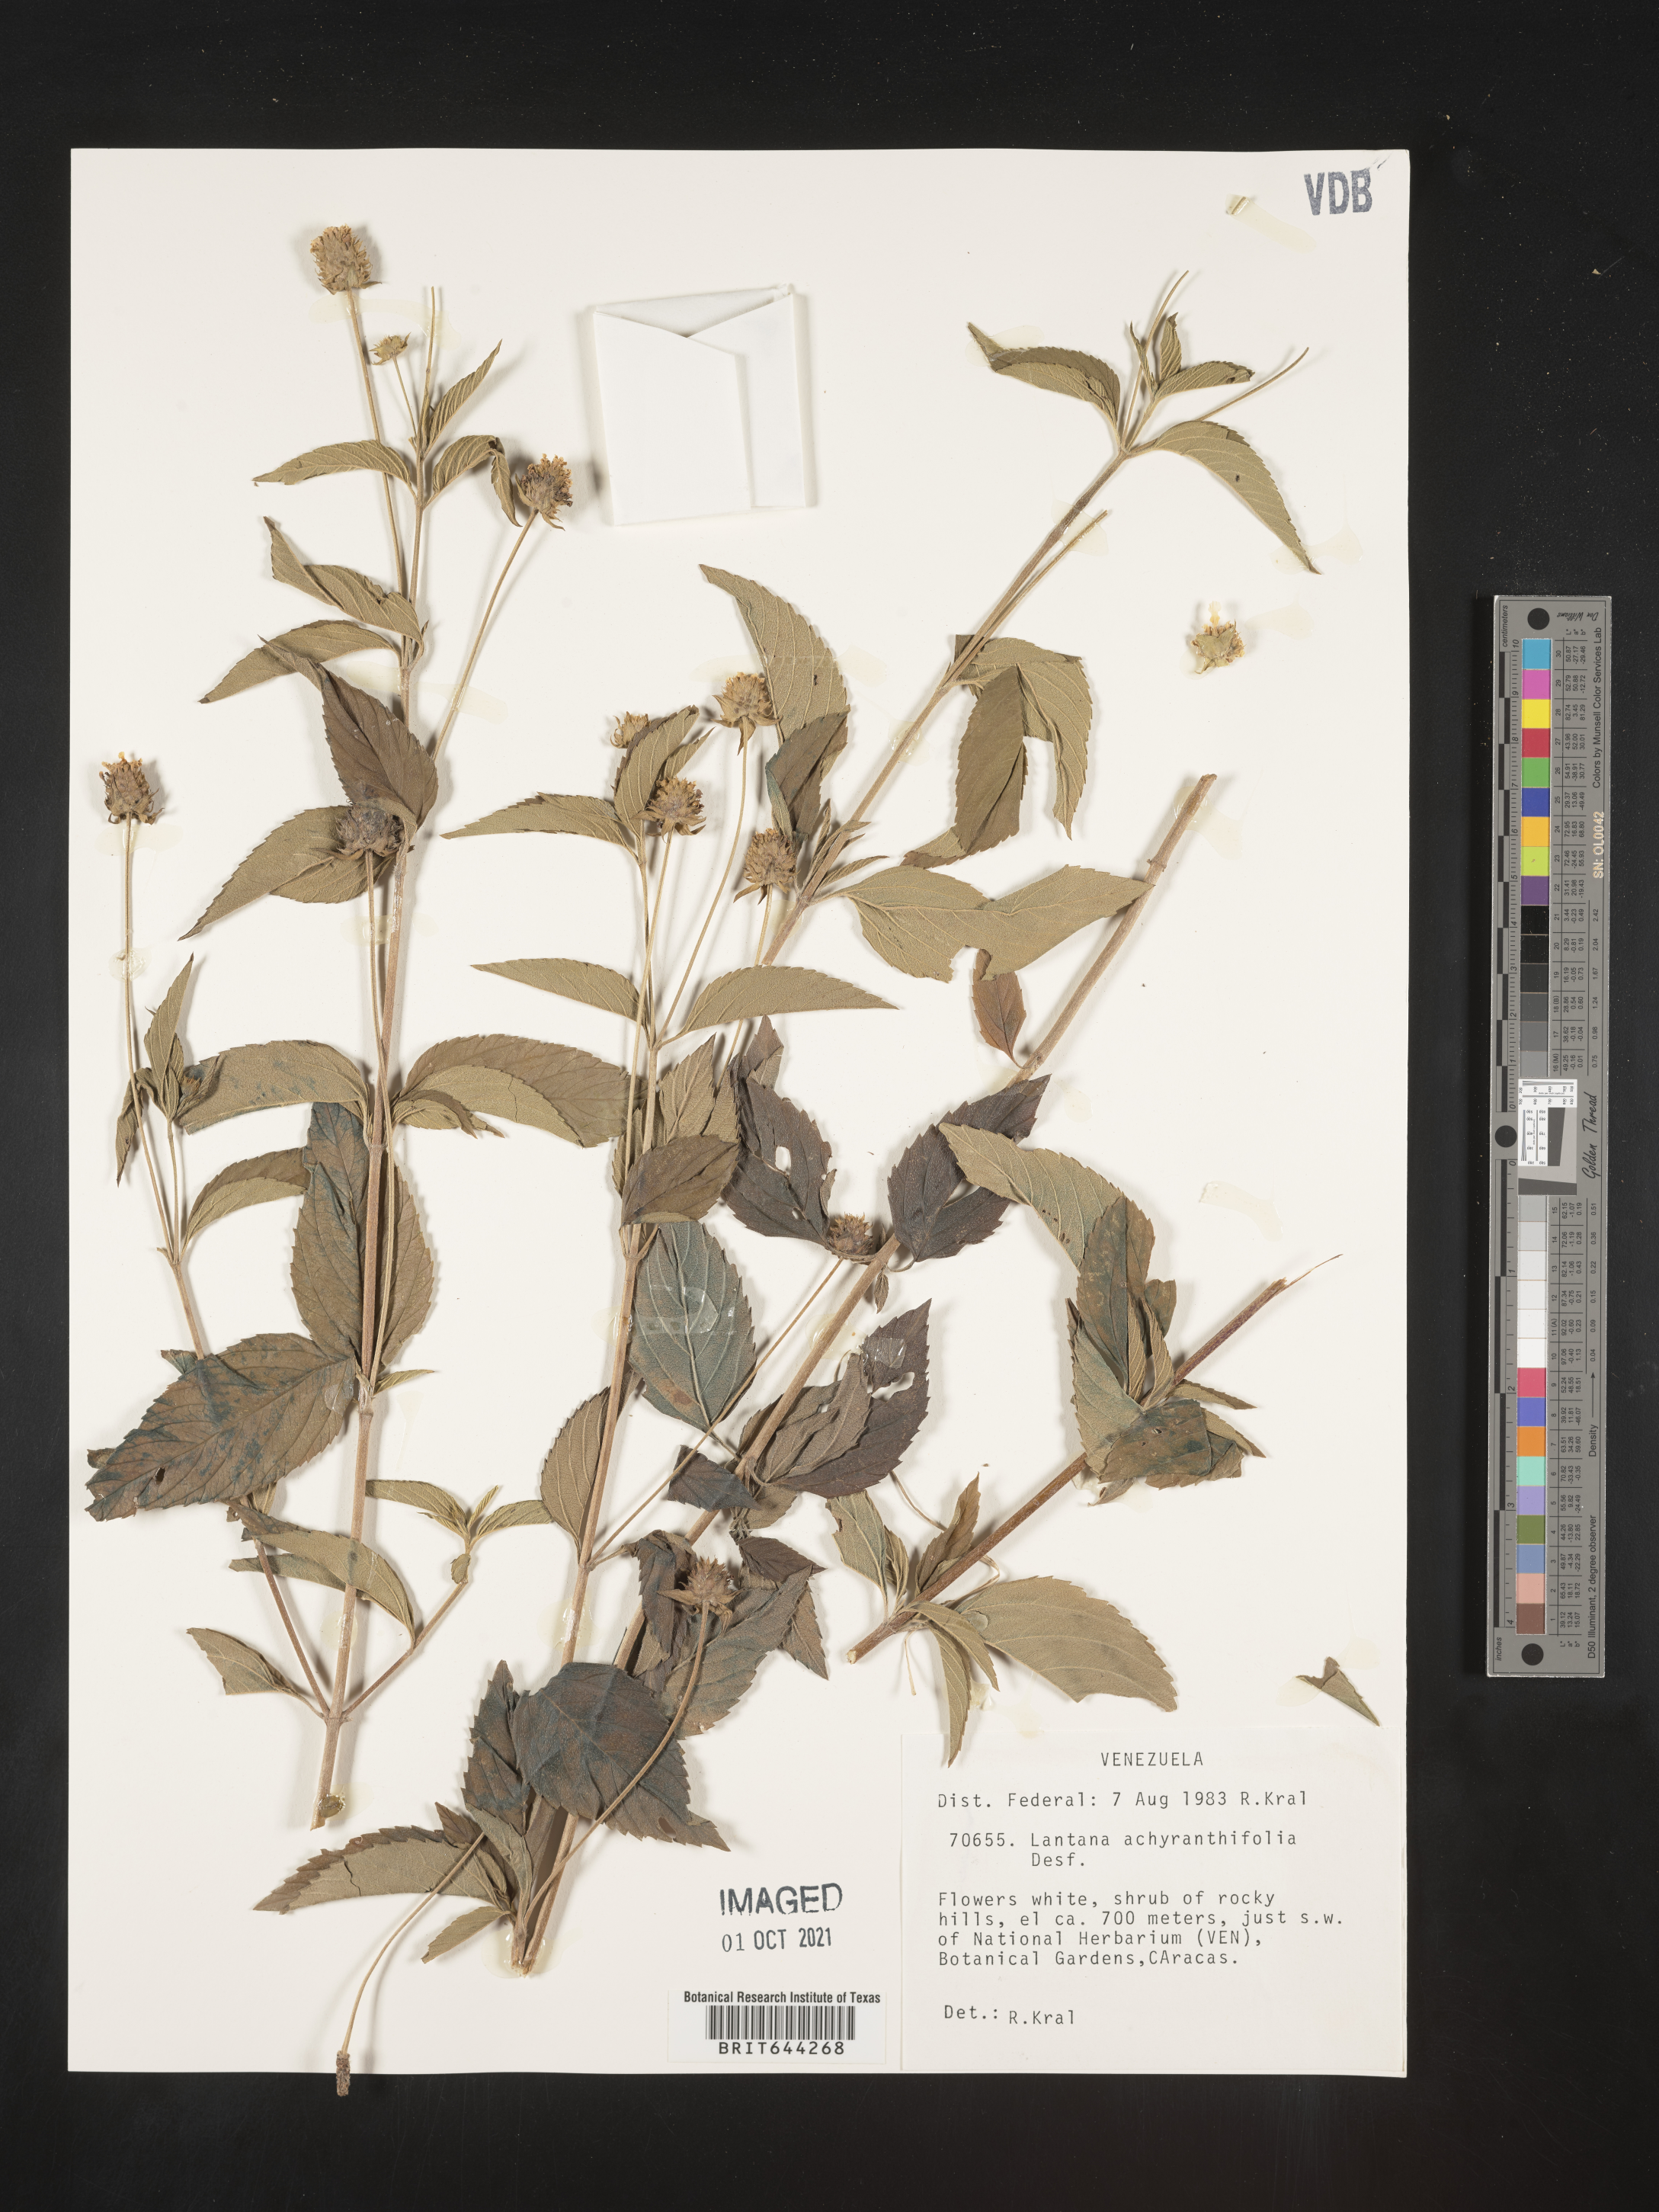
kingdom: Plantae
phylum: Tracheophyta
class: Magnoliopsida
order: Lamiales
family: Verbenaceae
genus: Lantana
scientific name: Lantana
